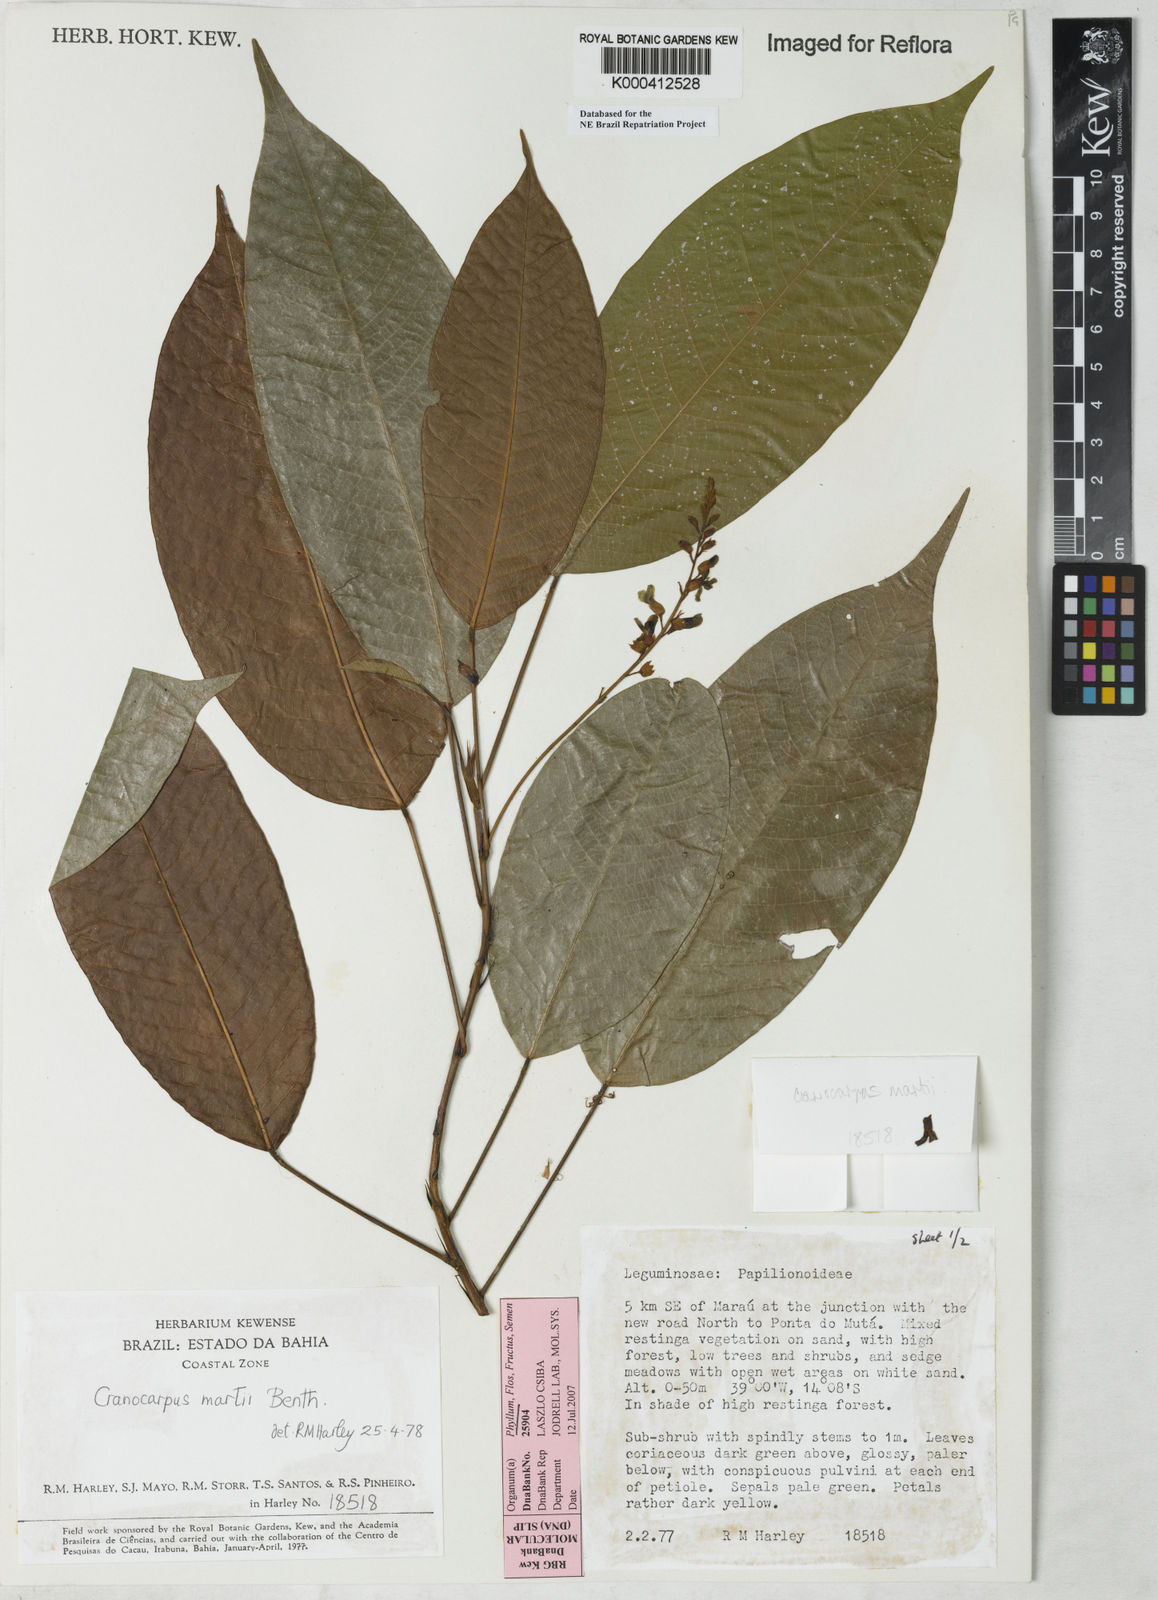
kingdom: Plantae
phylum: Tracheophyta
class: Magnoliopsida
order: Fabales
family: Fabaceae
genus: Cranocarpus
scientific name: Cranocarpus martii
